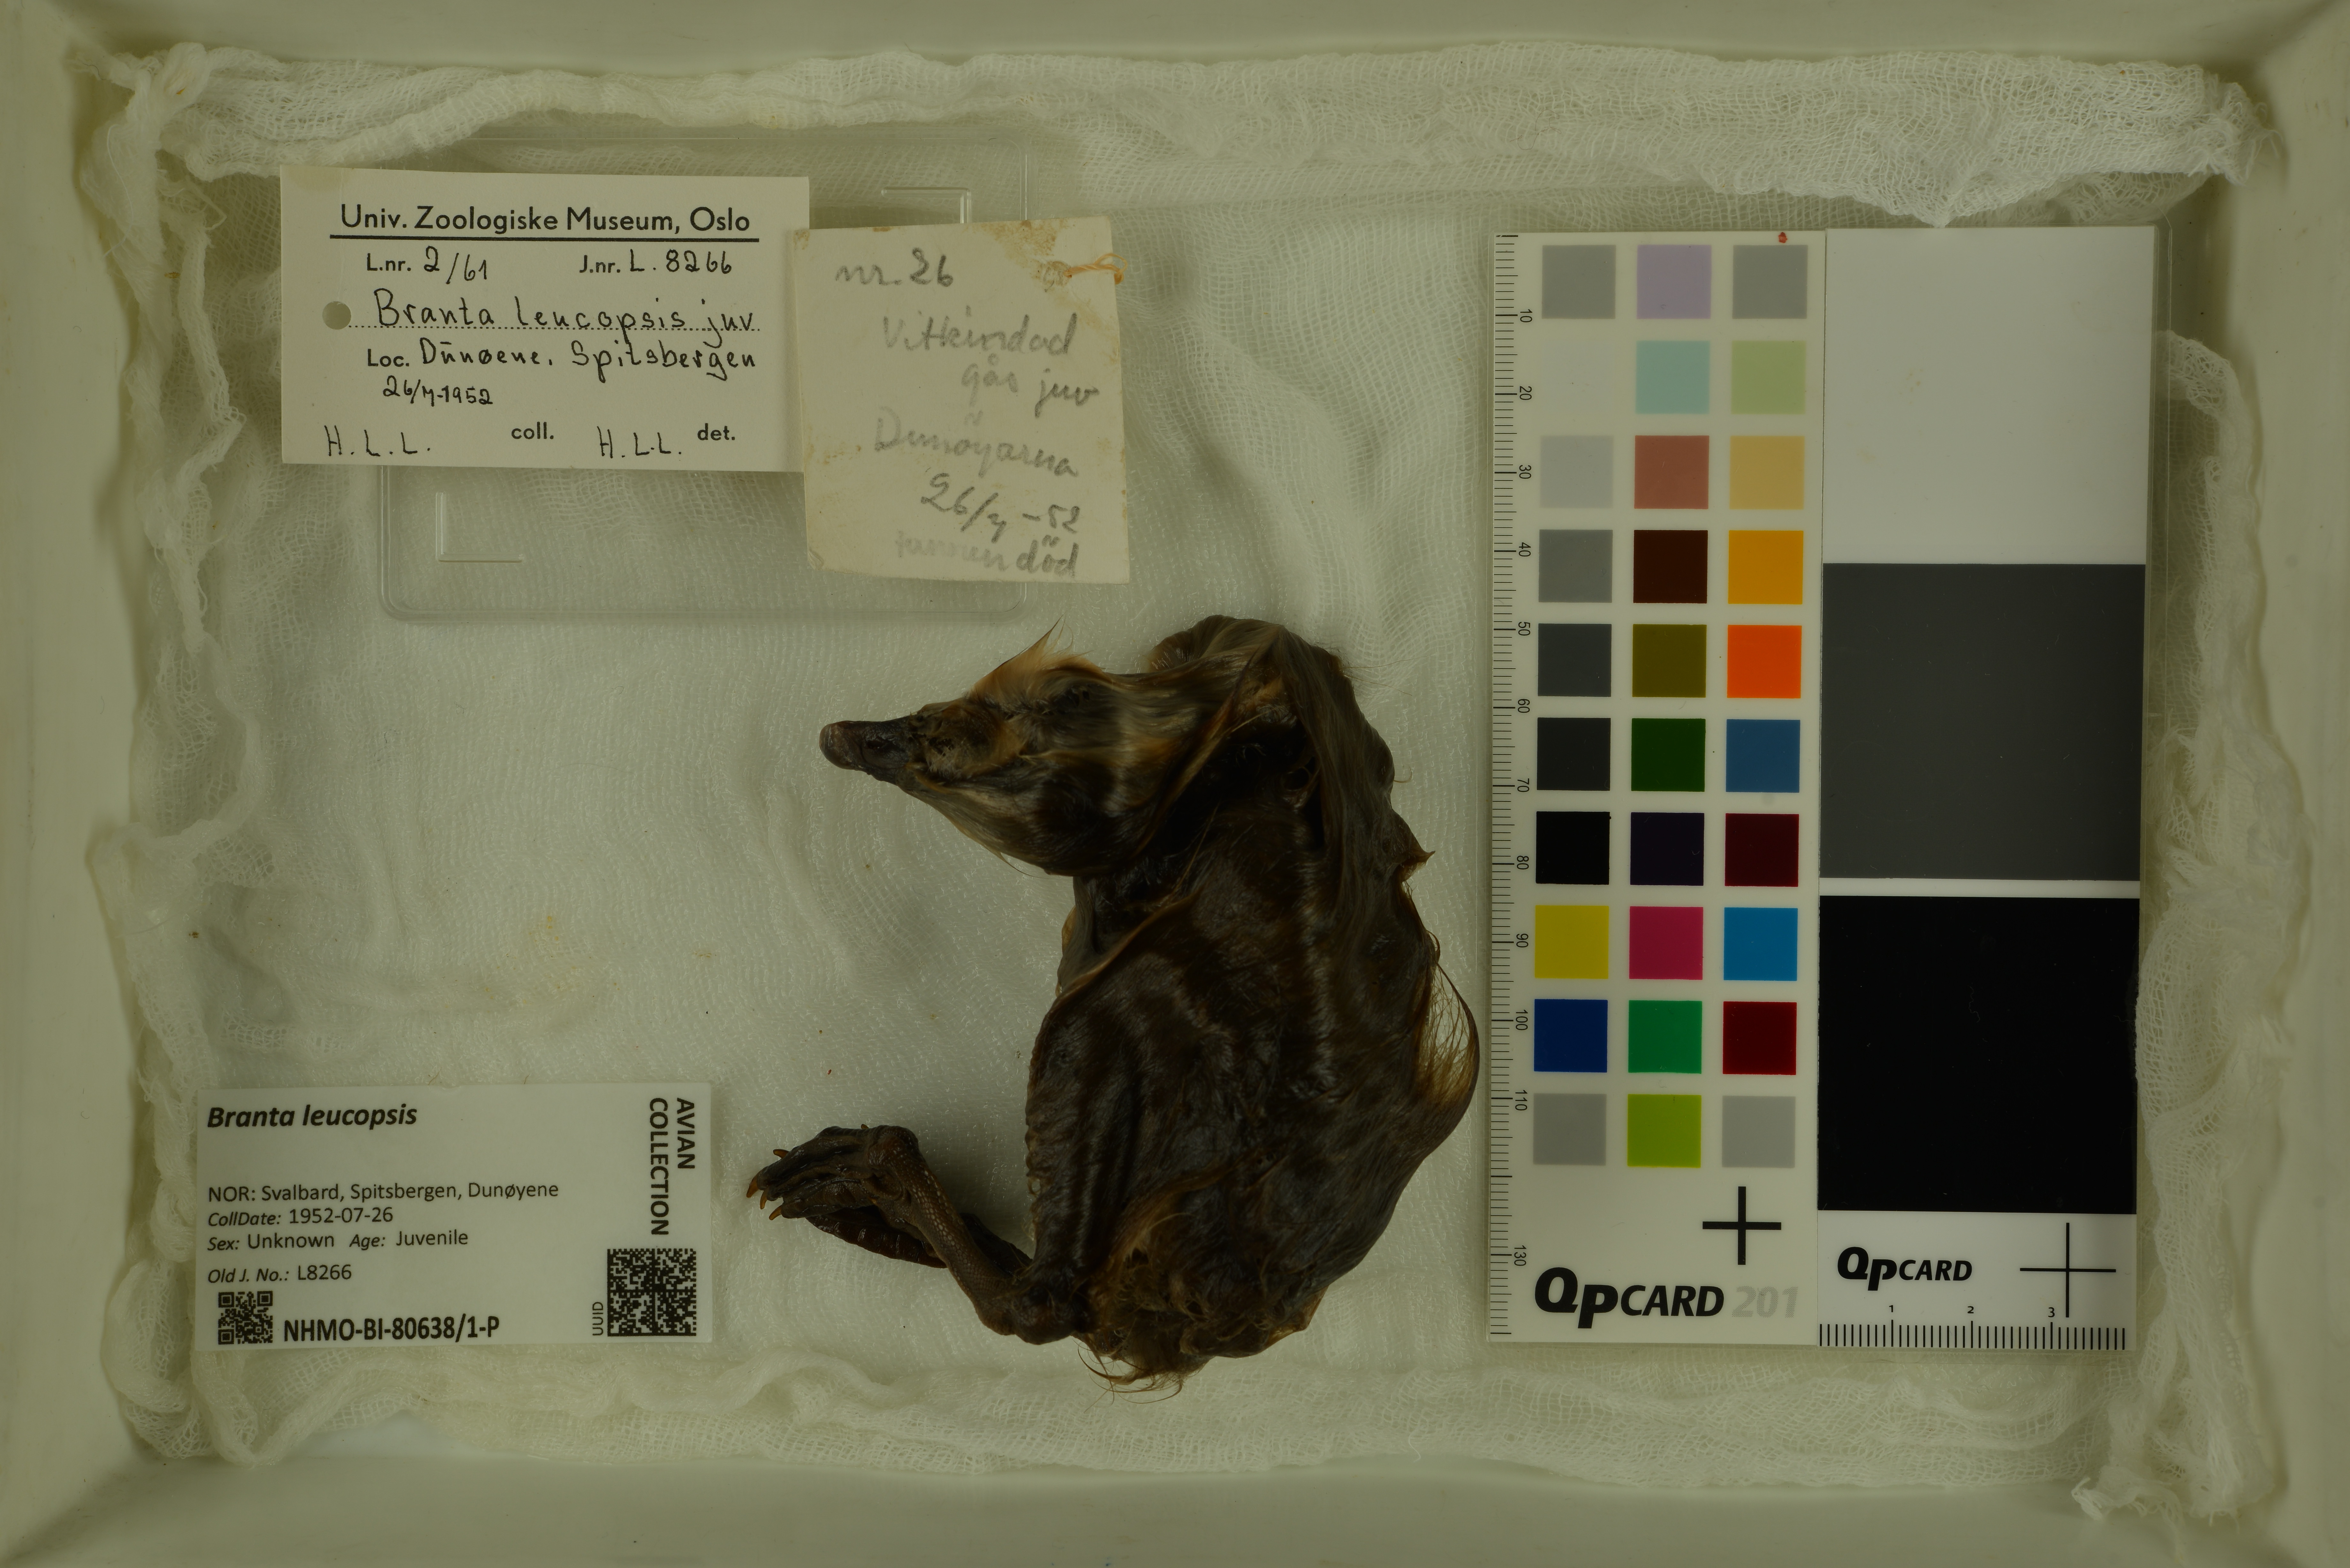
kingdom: Animalia
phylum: Chordata
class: Aves
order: Anseriformes
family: Anatidae
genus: Branta
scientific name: Branta leucopsis
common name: Barnacle goose
